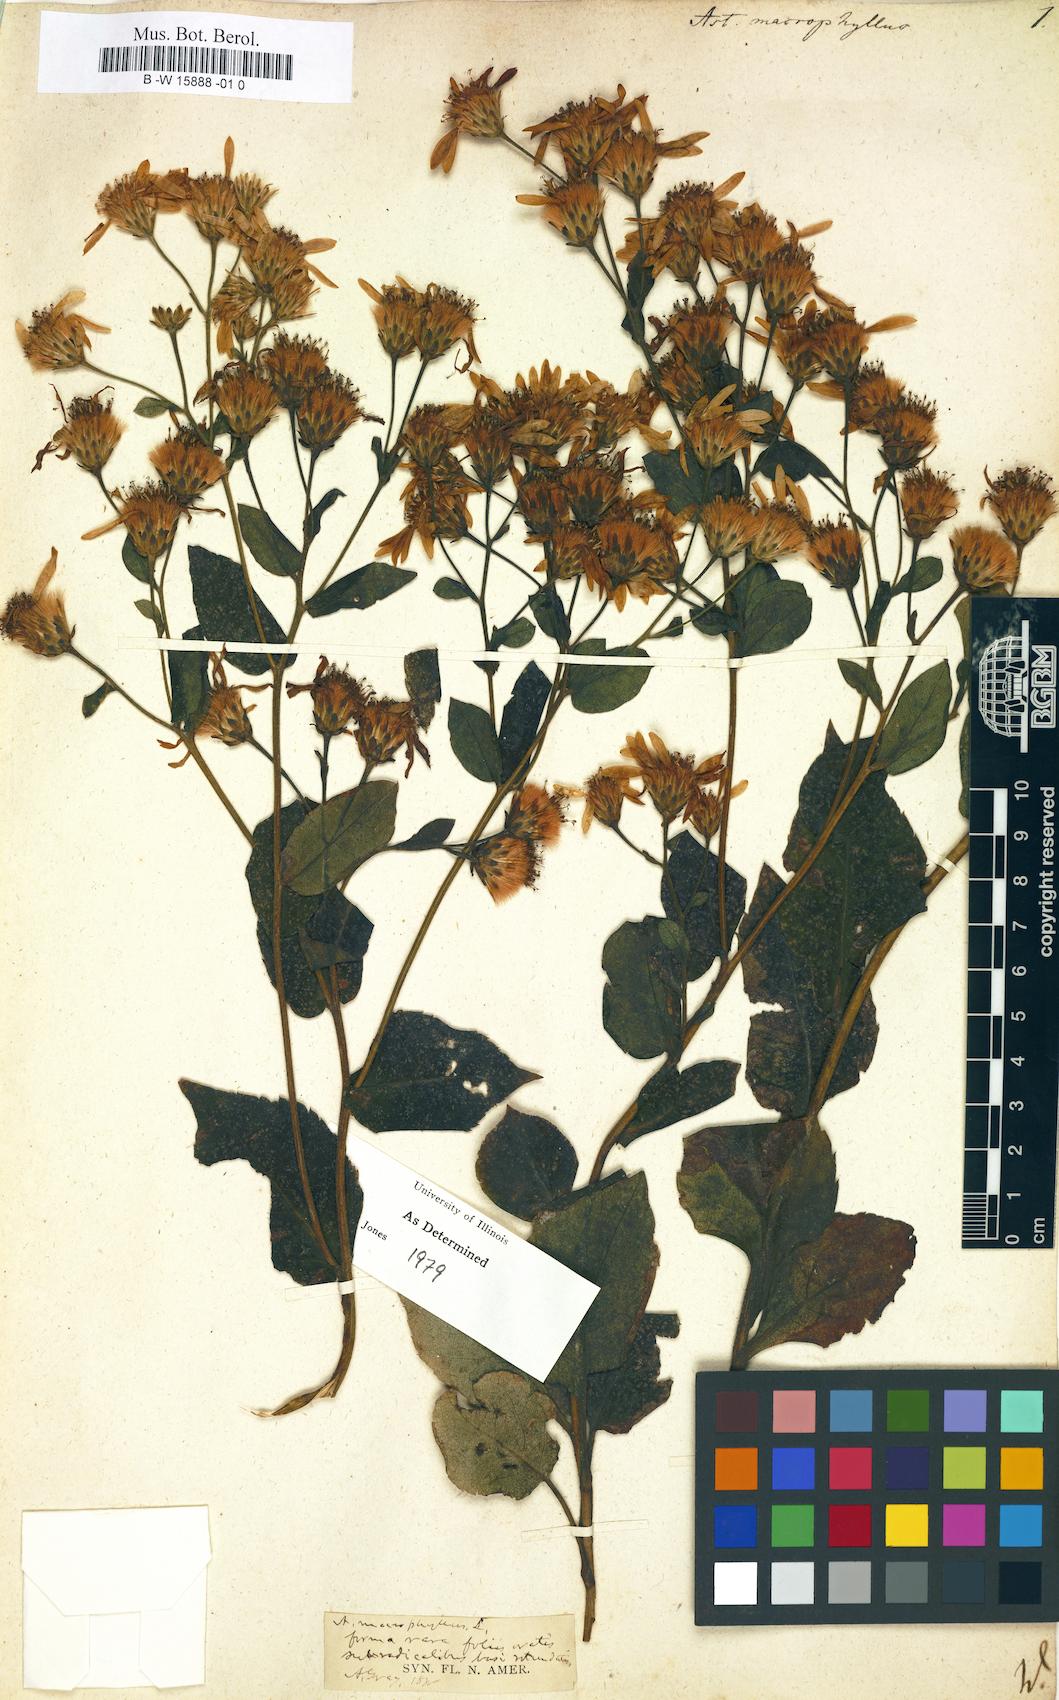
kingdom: Plantae
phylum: Tracheophyta
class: Magnoliopsida
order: Asterales
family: Asteraceae
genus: Eurybia
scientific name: Eurybia macrophylla
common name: Big-leaved aster
